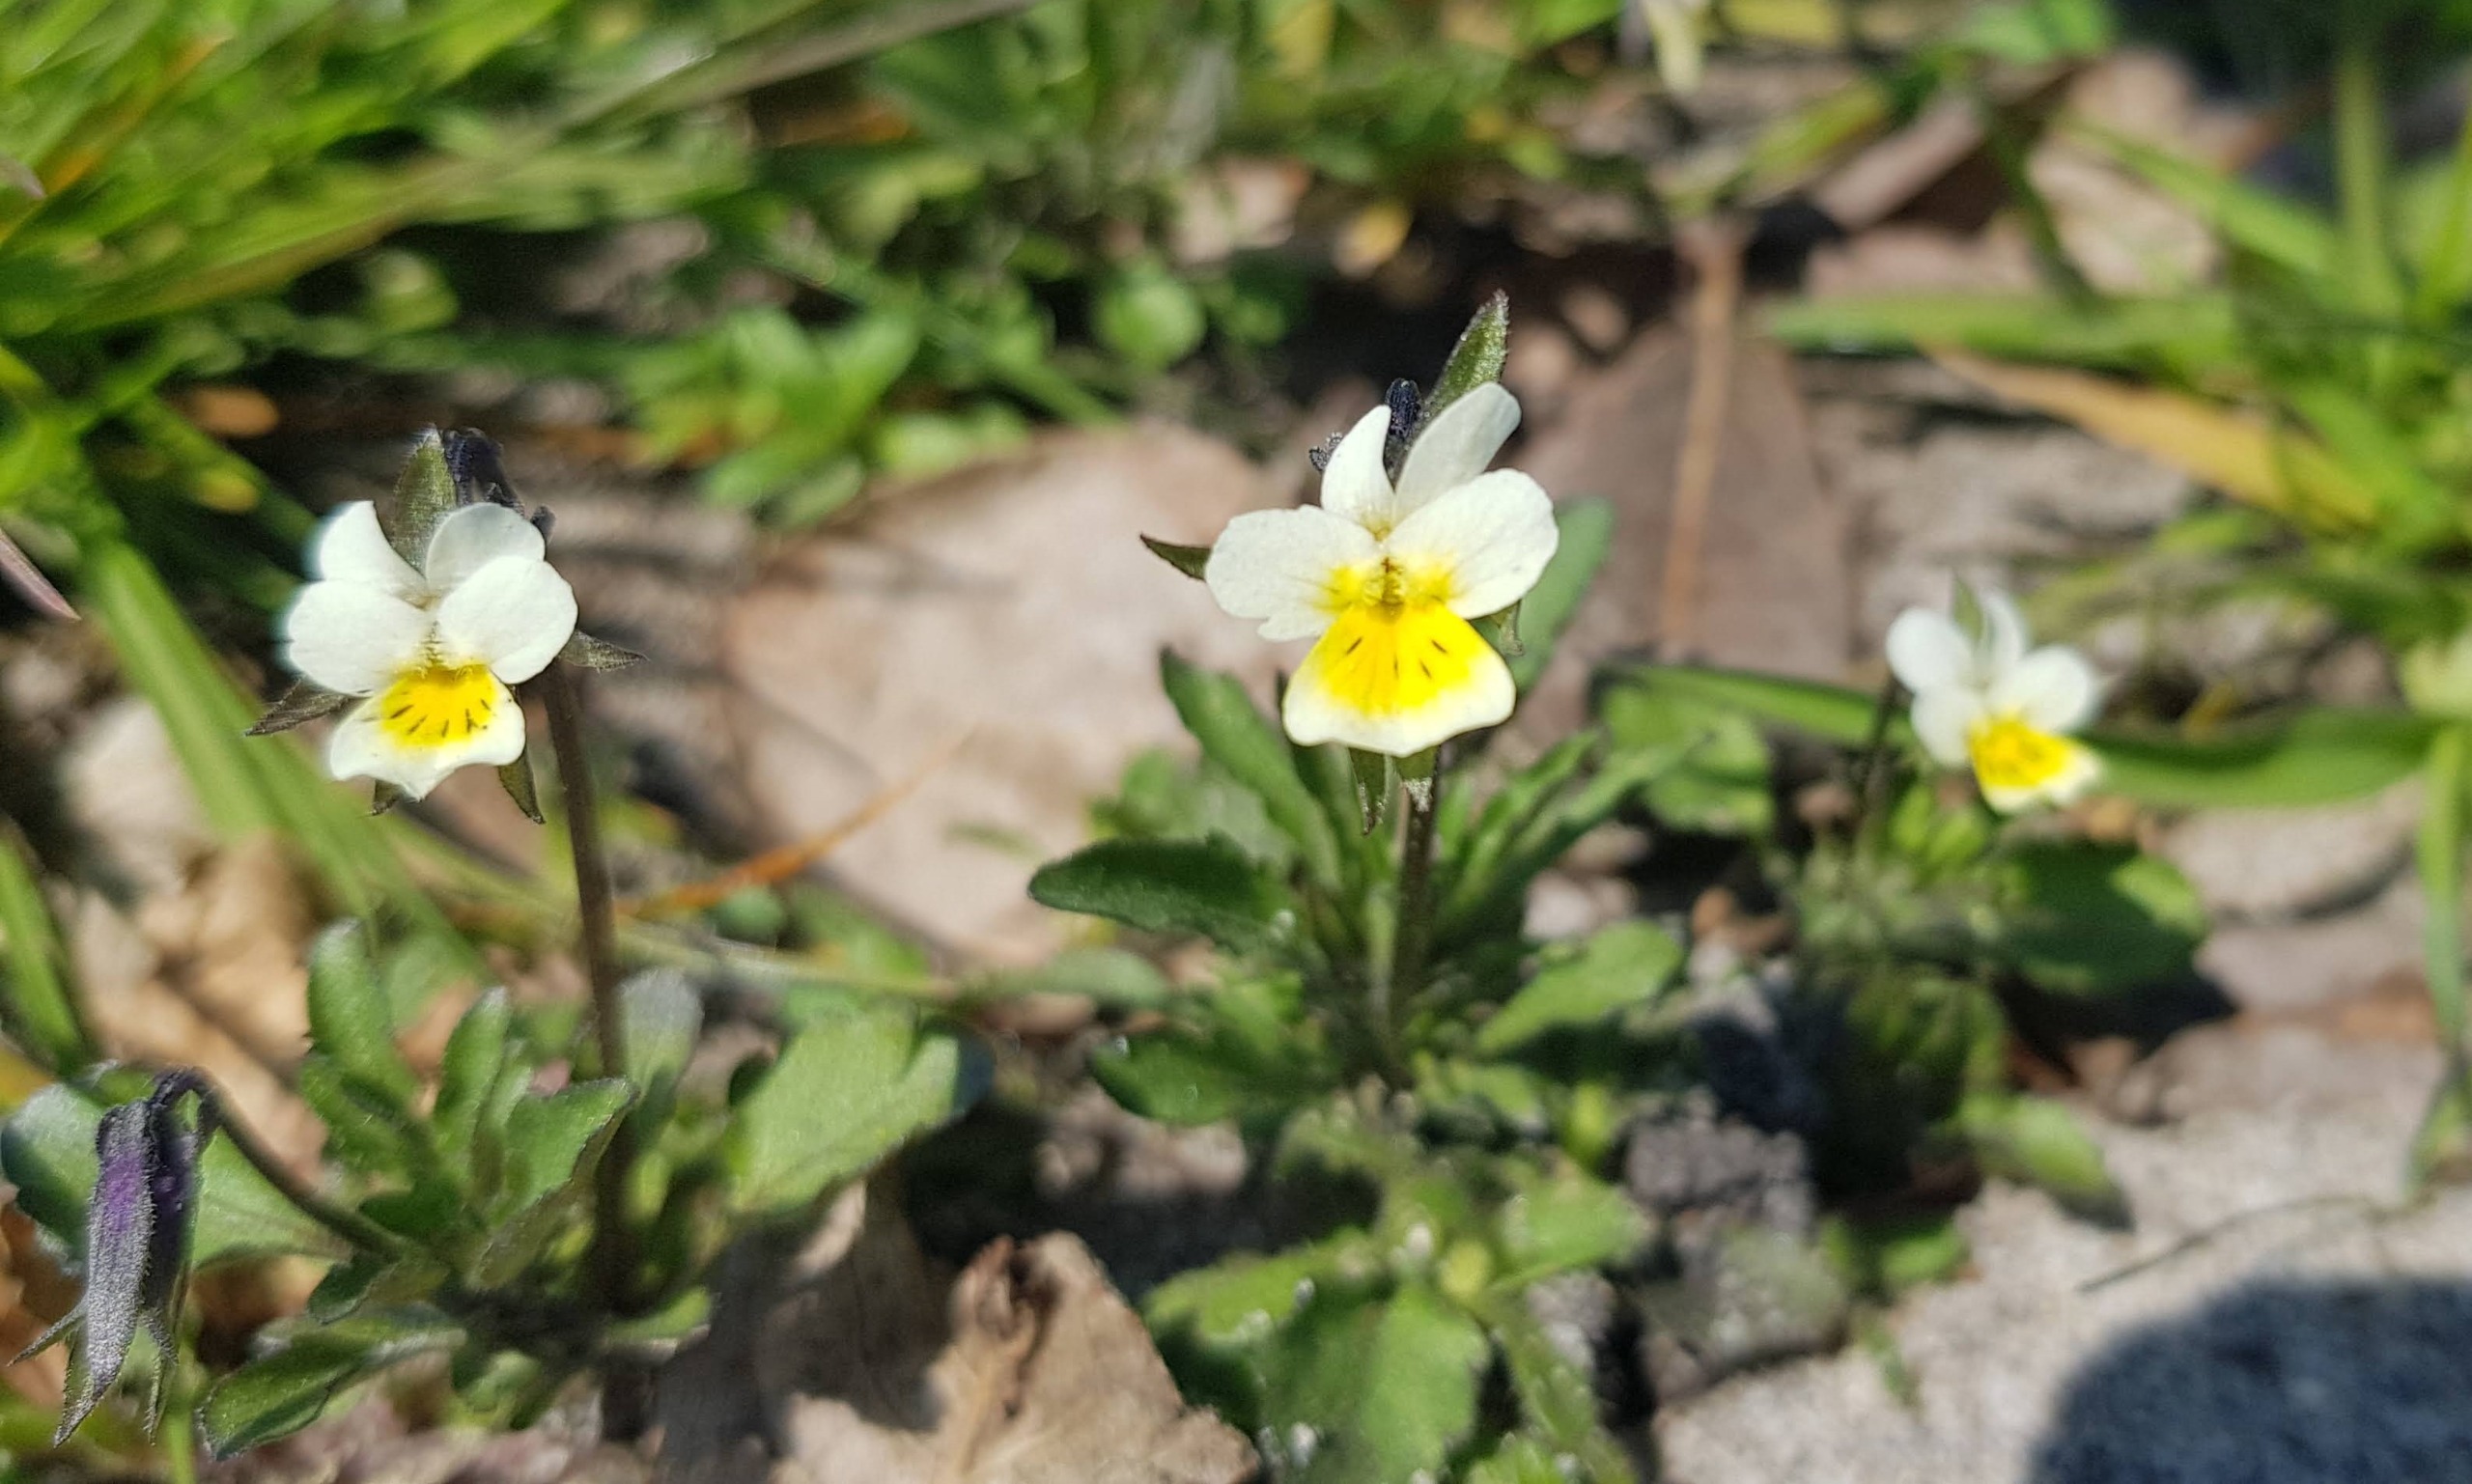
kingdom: Plantae
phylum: Tracheophyta
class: Magnoliopsida
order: Malpighiales
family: Violaceae
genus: Viola
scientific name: Viola arvensis
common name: Ager-stedmoderblomst
